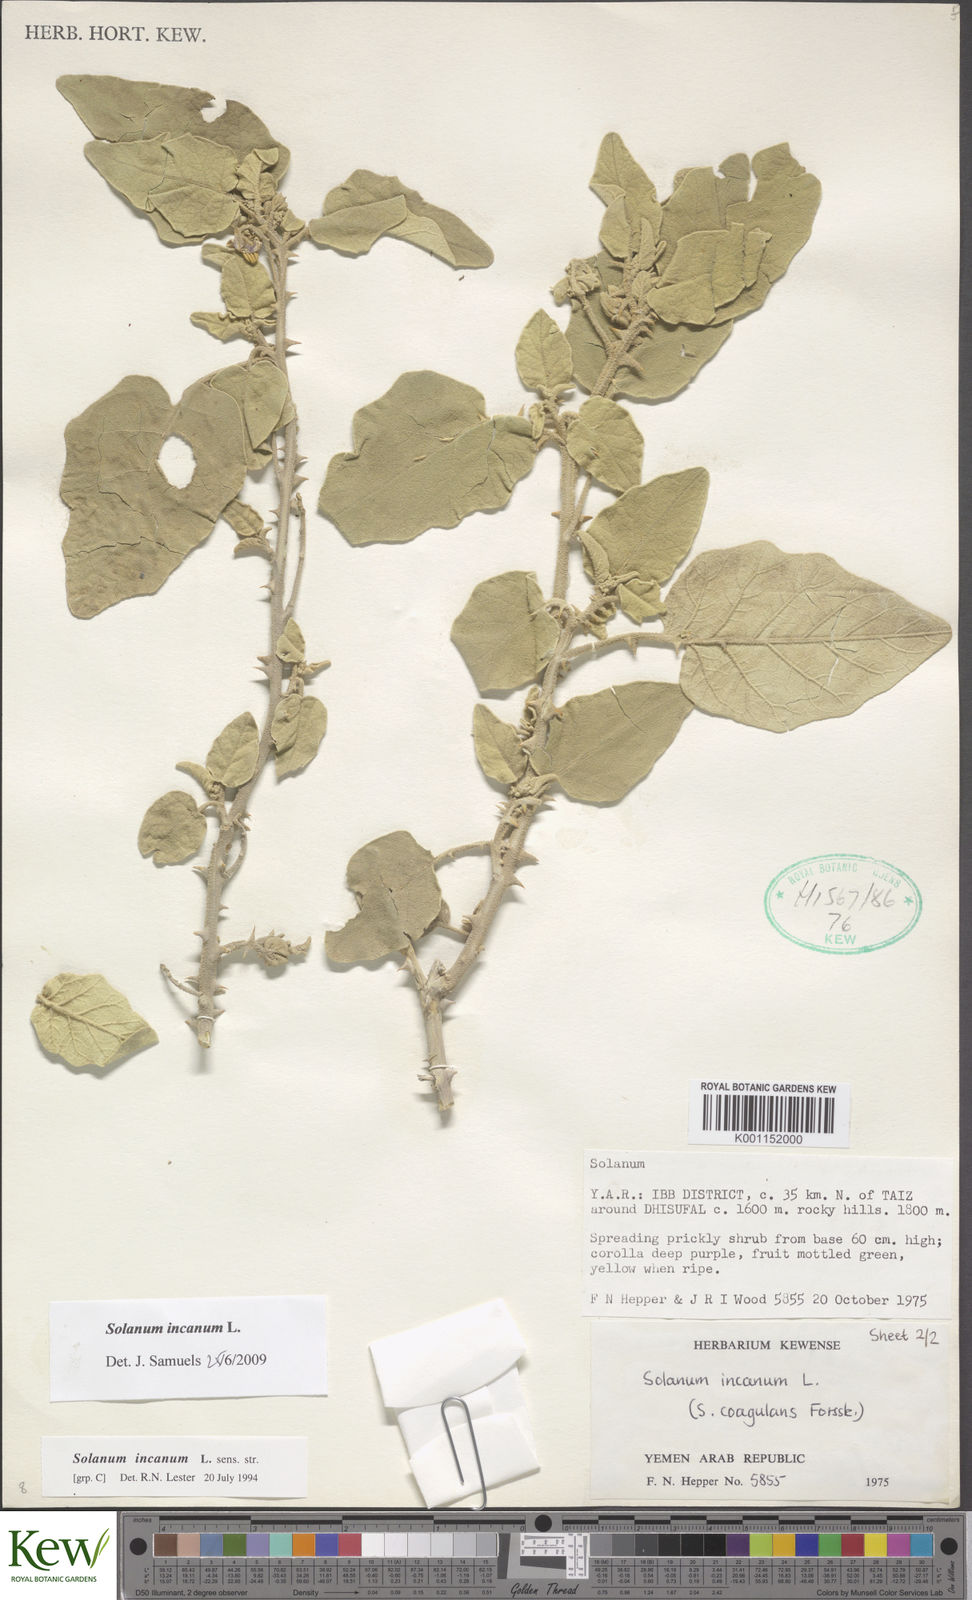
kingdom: Plantae
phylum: Tracheophyta
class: Magnoliopsida
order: Solanales
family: Solanaceae
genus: Solanum
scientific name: Solanum incanum
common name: Bitter apple
